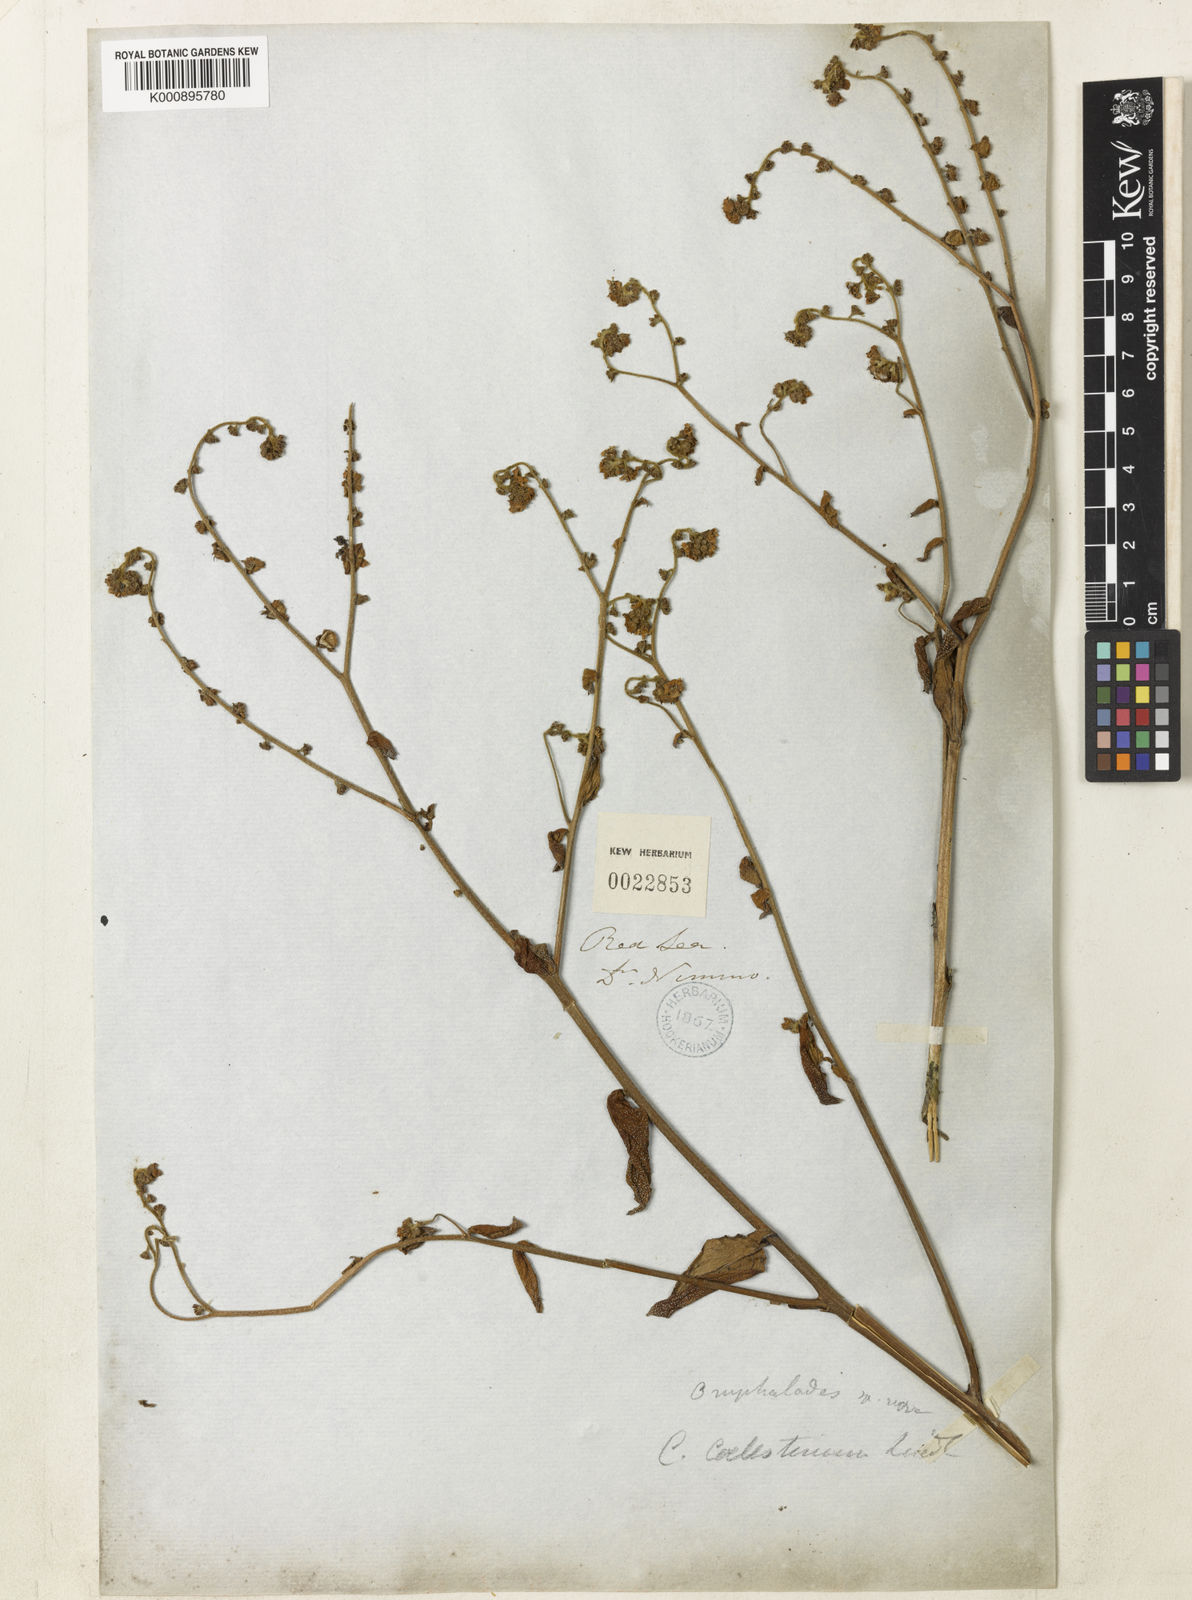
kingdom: Plantae
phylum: Tracheophyta
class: Magnoliopsida
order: Boraginales
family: Boraginaceae
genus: Paracaryum
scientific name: Paracaryum
